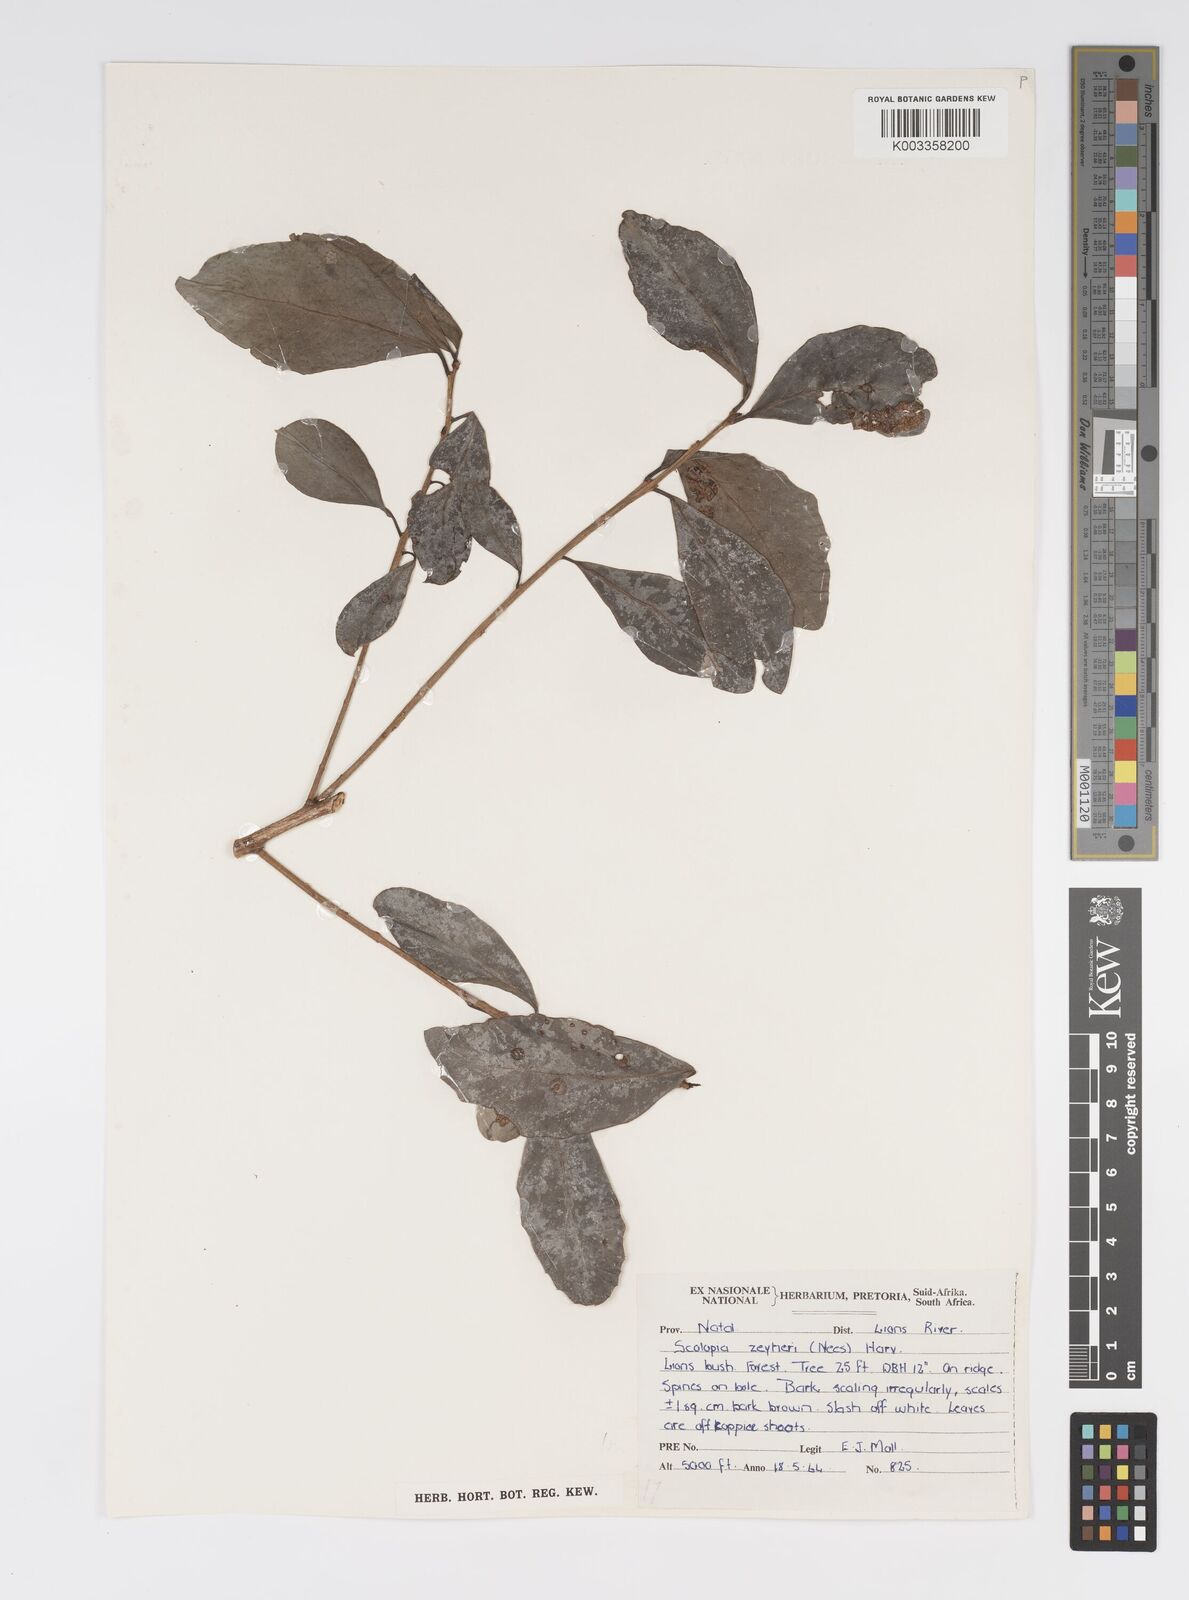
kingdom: Plantae
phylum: Tracheophyta
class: Magnoliopsida
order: Malpighiales
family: Salicaceae
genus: Scolopia
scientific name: Scolopia zeyheri
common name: Thorn pear
